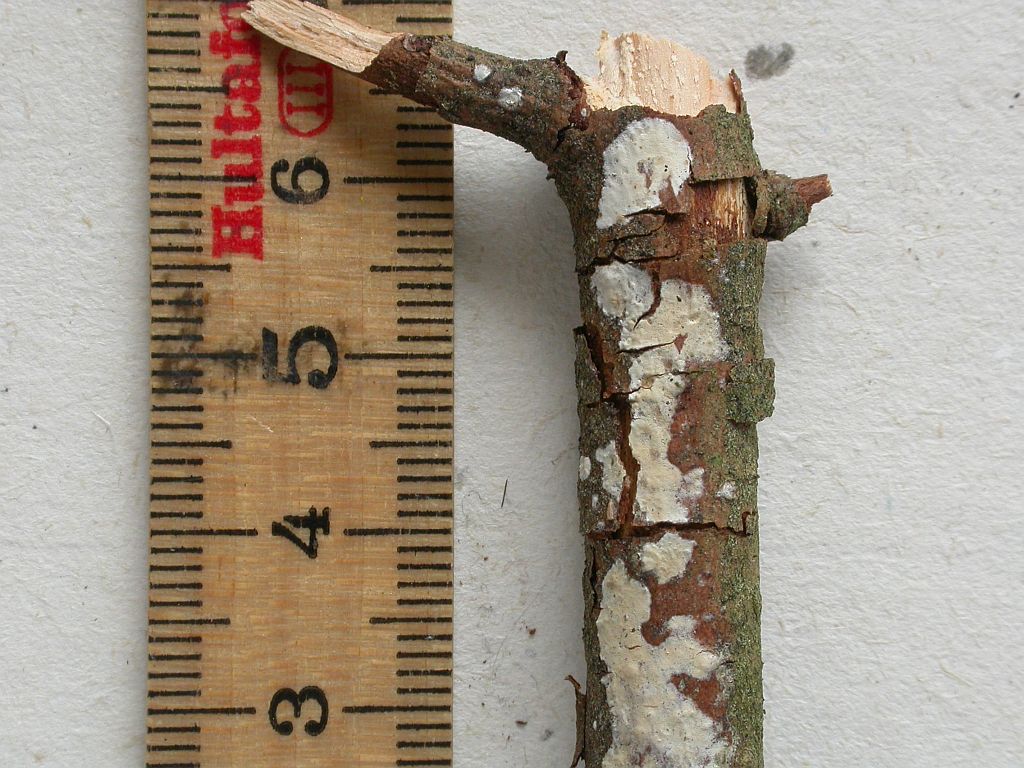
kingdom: Fungi
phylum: Basidiomycota
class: Agaricomycetes
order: Agaricales
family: Radulomycetaceae
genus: Radulomyces
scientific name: Radulomyces confluens
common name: glat naftalinskind
